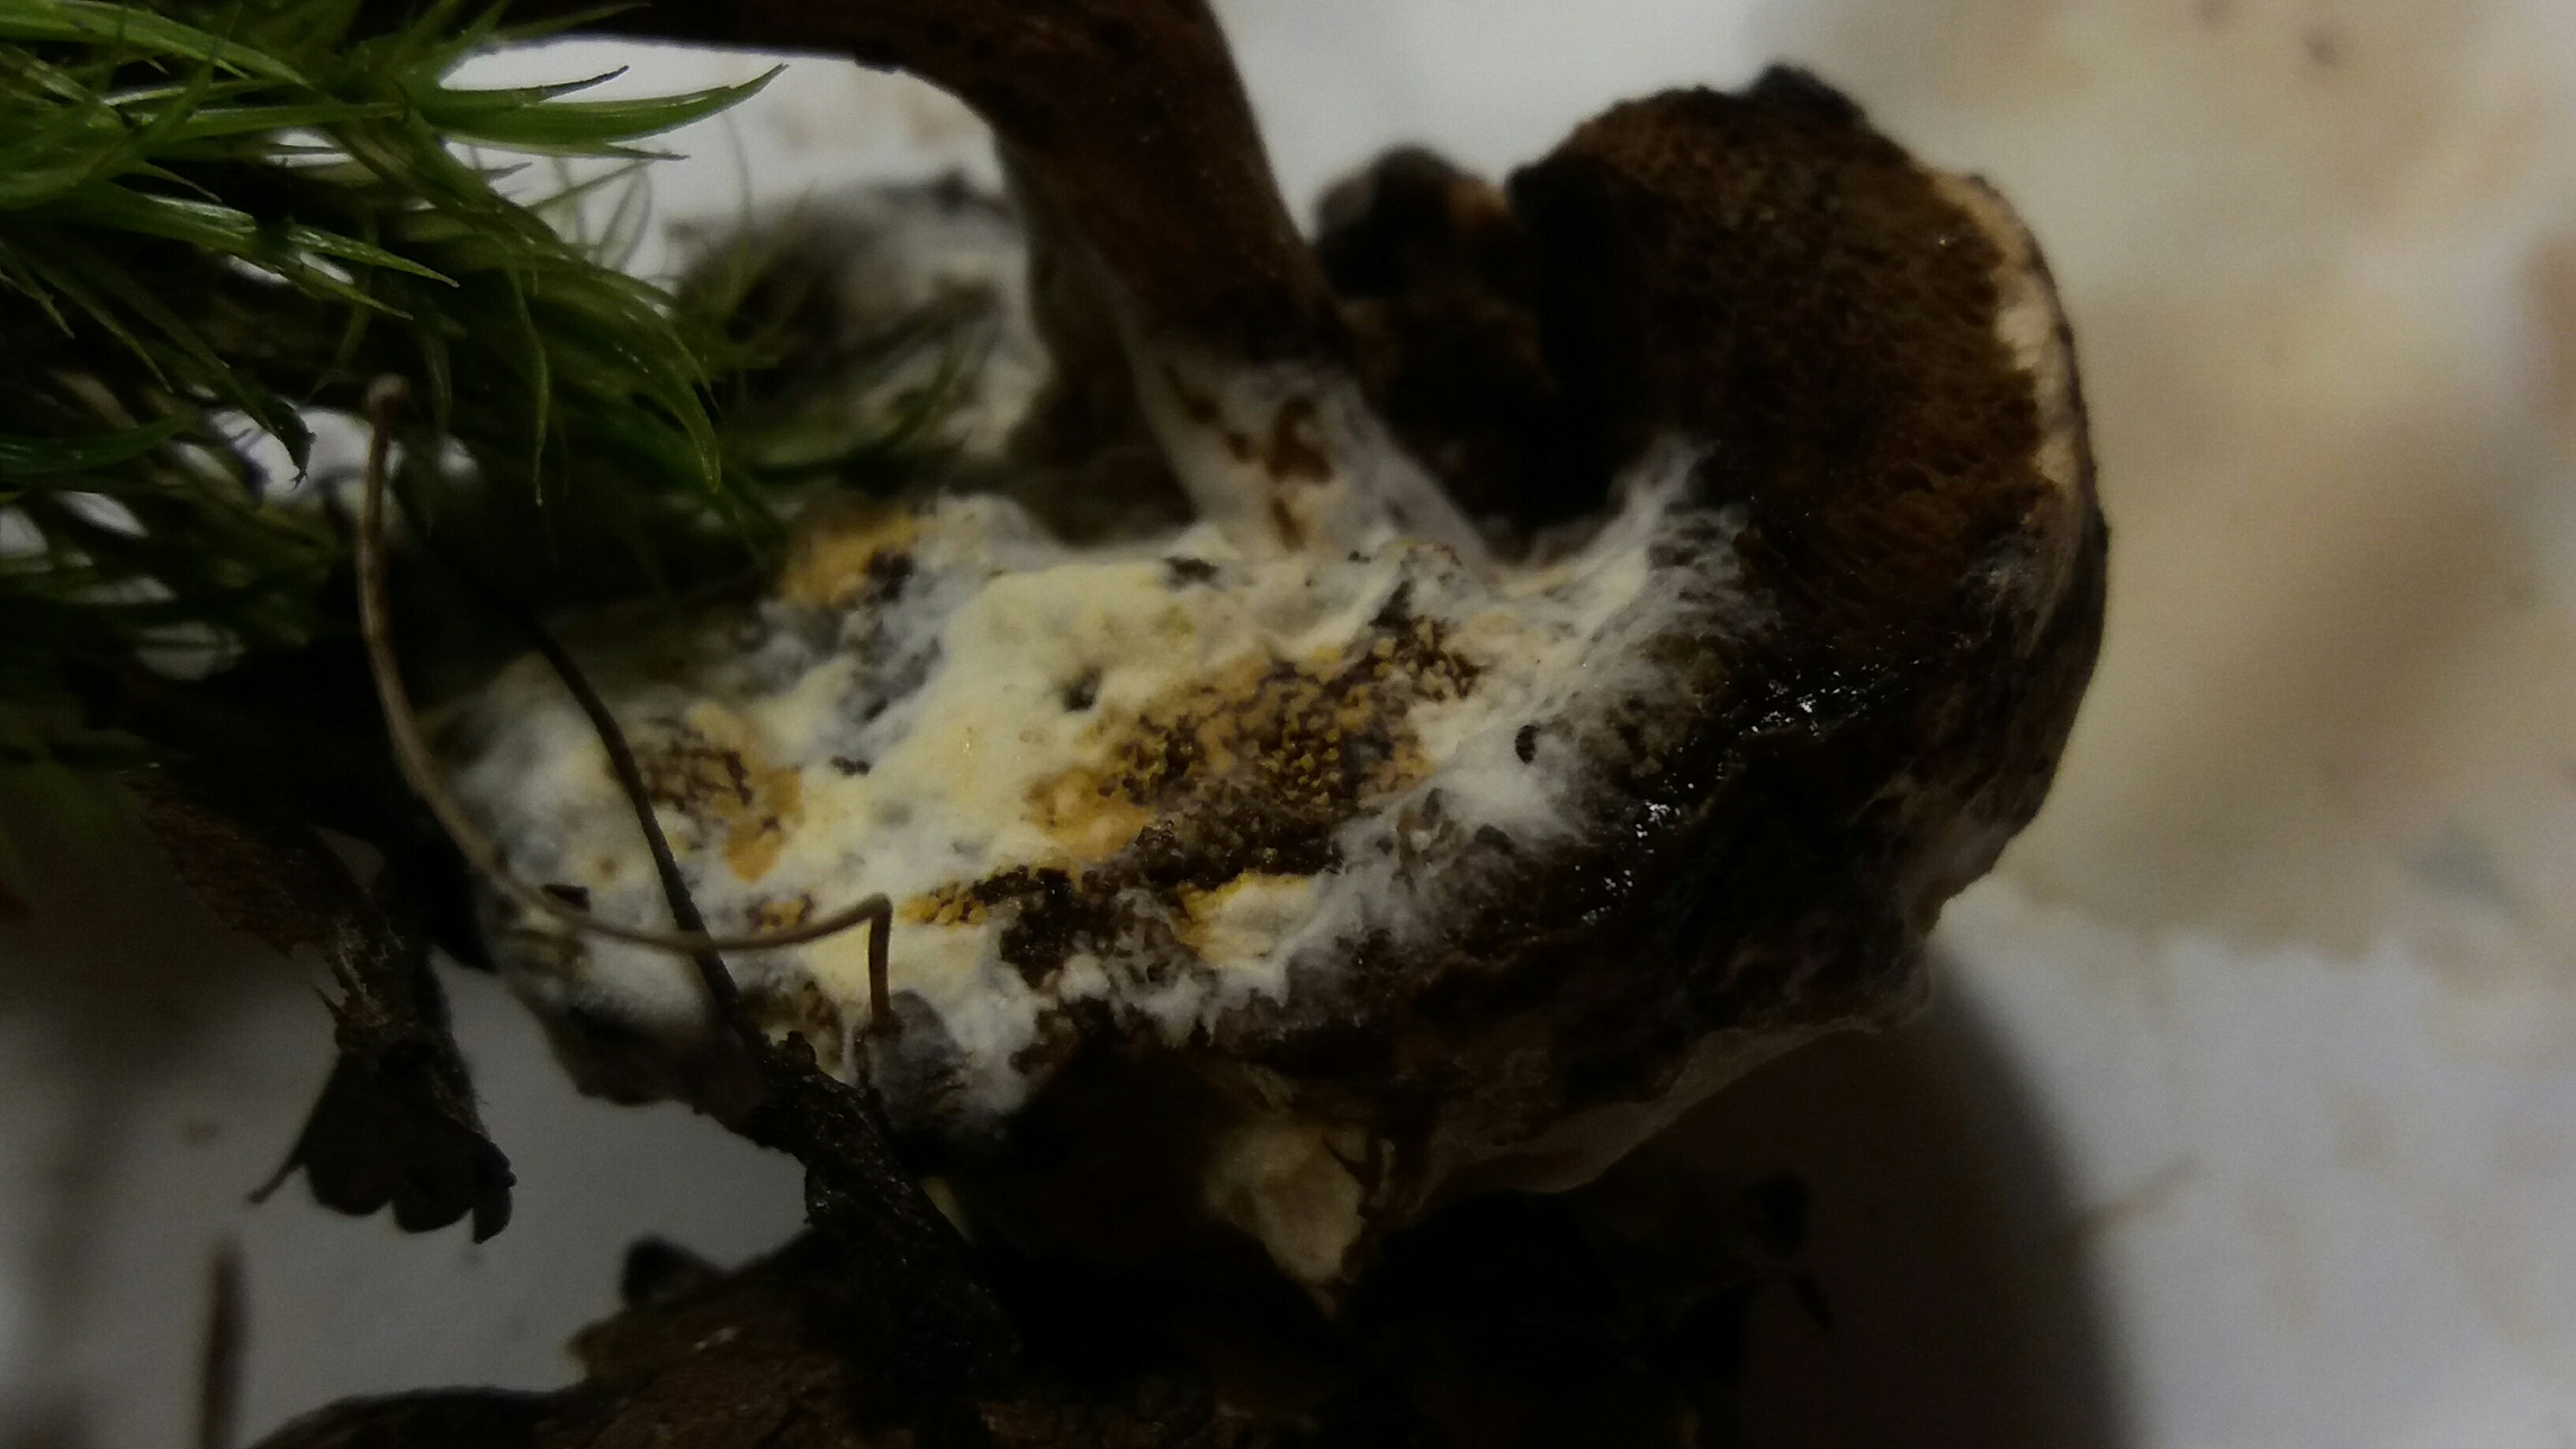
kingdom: Fungi
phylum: Ascomycota
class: Sordariomycetes
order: Hypocreales
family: Hypocreaceae
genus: Hypomyces
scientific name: Hypomyces microspermus
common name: dværgrørhat-snylteskorpe
